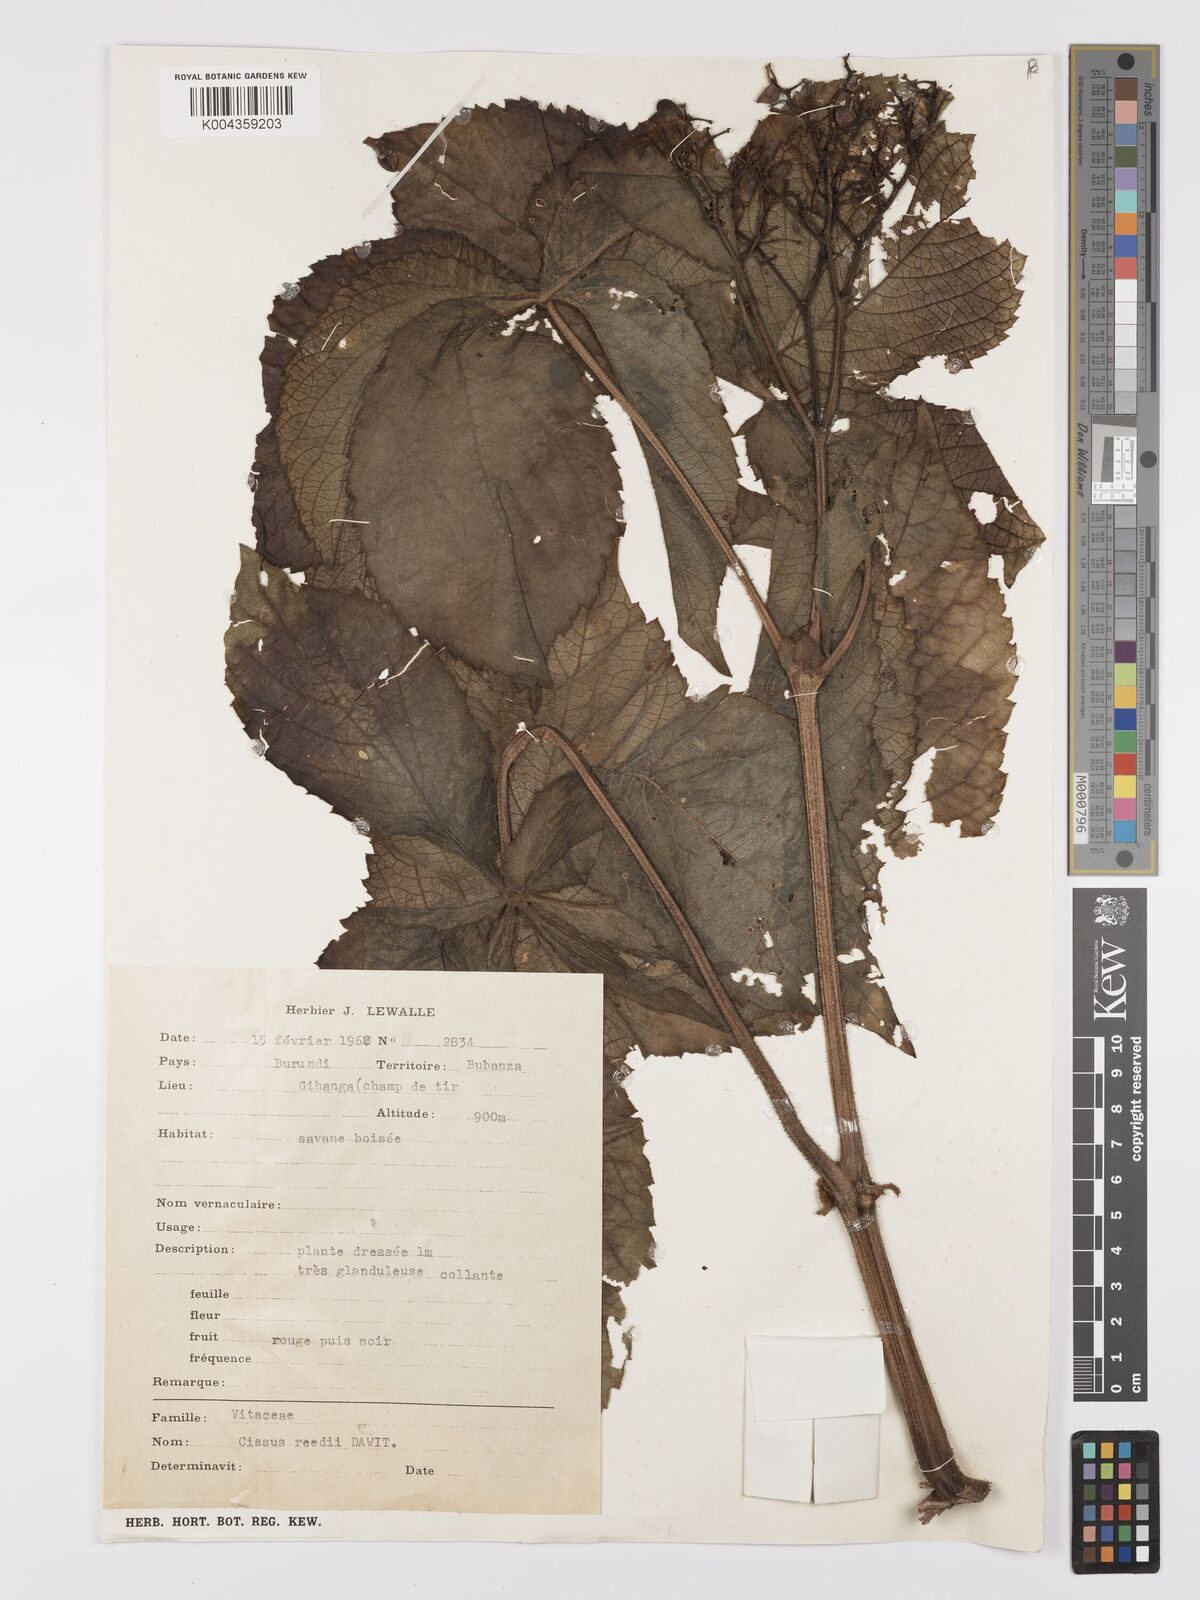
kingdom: Plantae
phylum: Tracheophyta
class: Magnoliopsida
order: Vitales
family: Vitaceae
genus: Cyphostemma
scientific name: Cyphostemma heterotrichum
